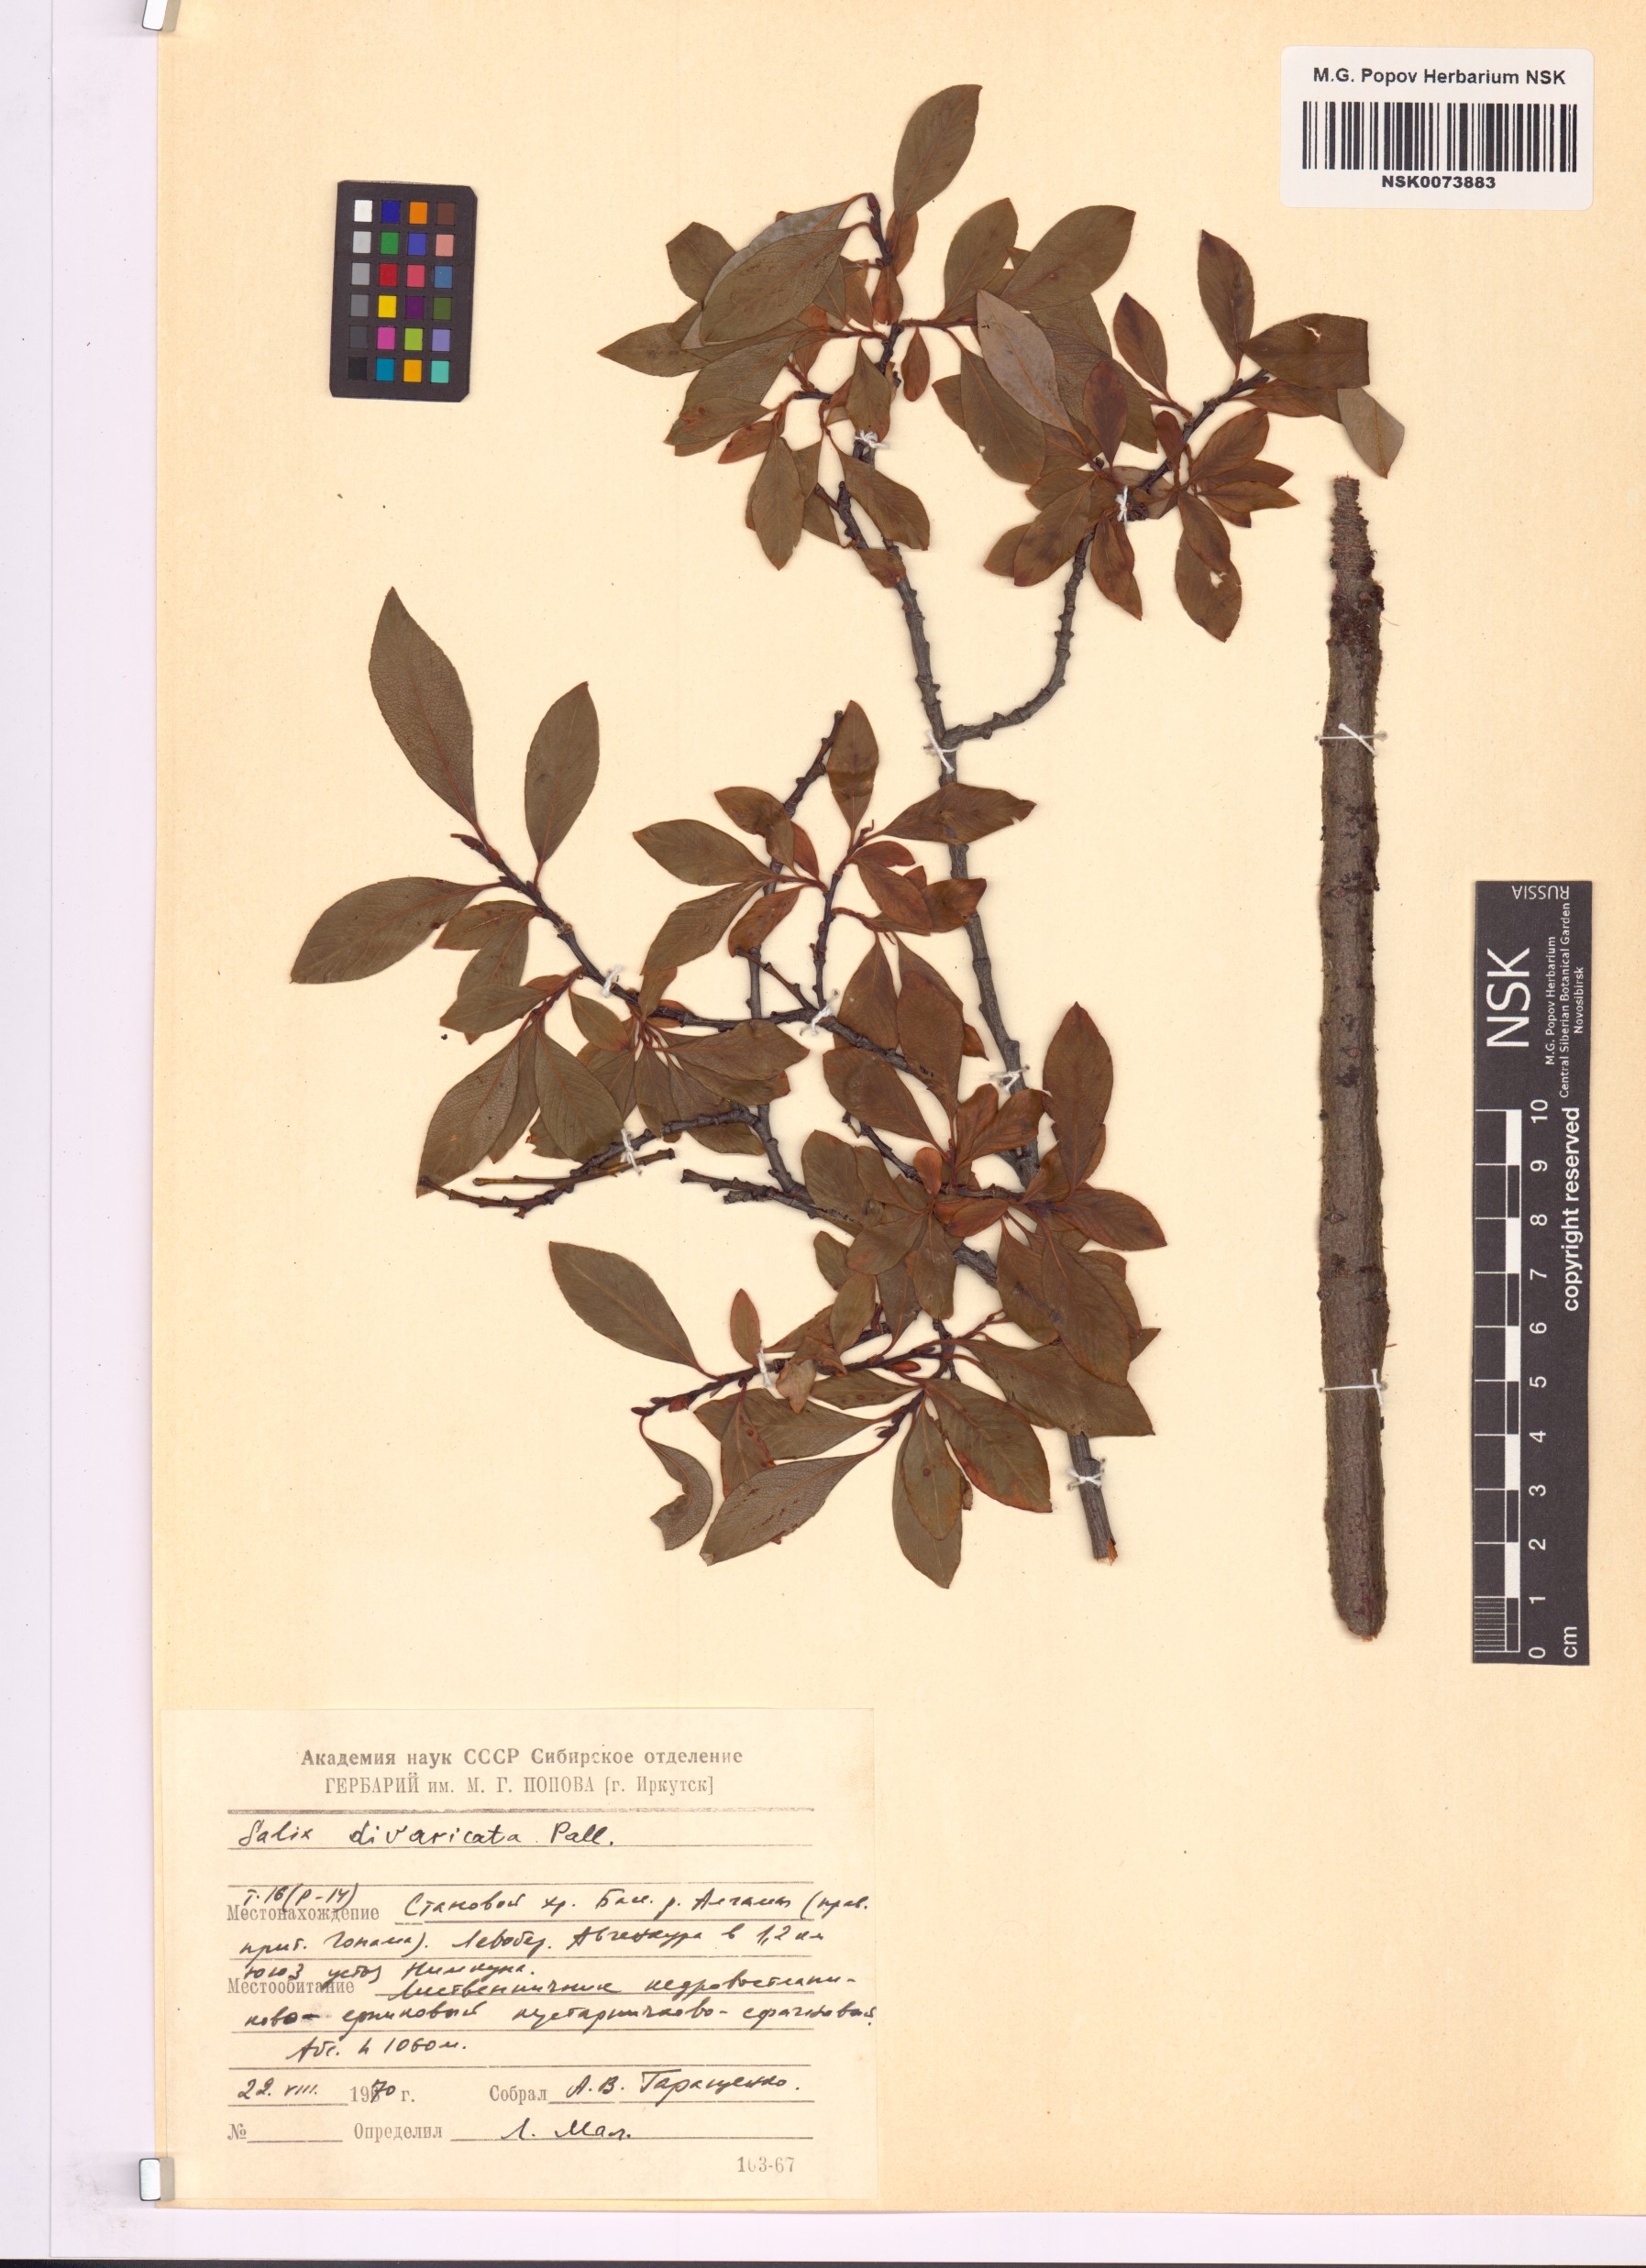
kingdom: Plantae
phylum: Tracheophyta
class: Magnoliopsida
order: Malpighiales
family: Salicaceae
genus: Salix
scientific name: Salix divaricata
